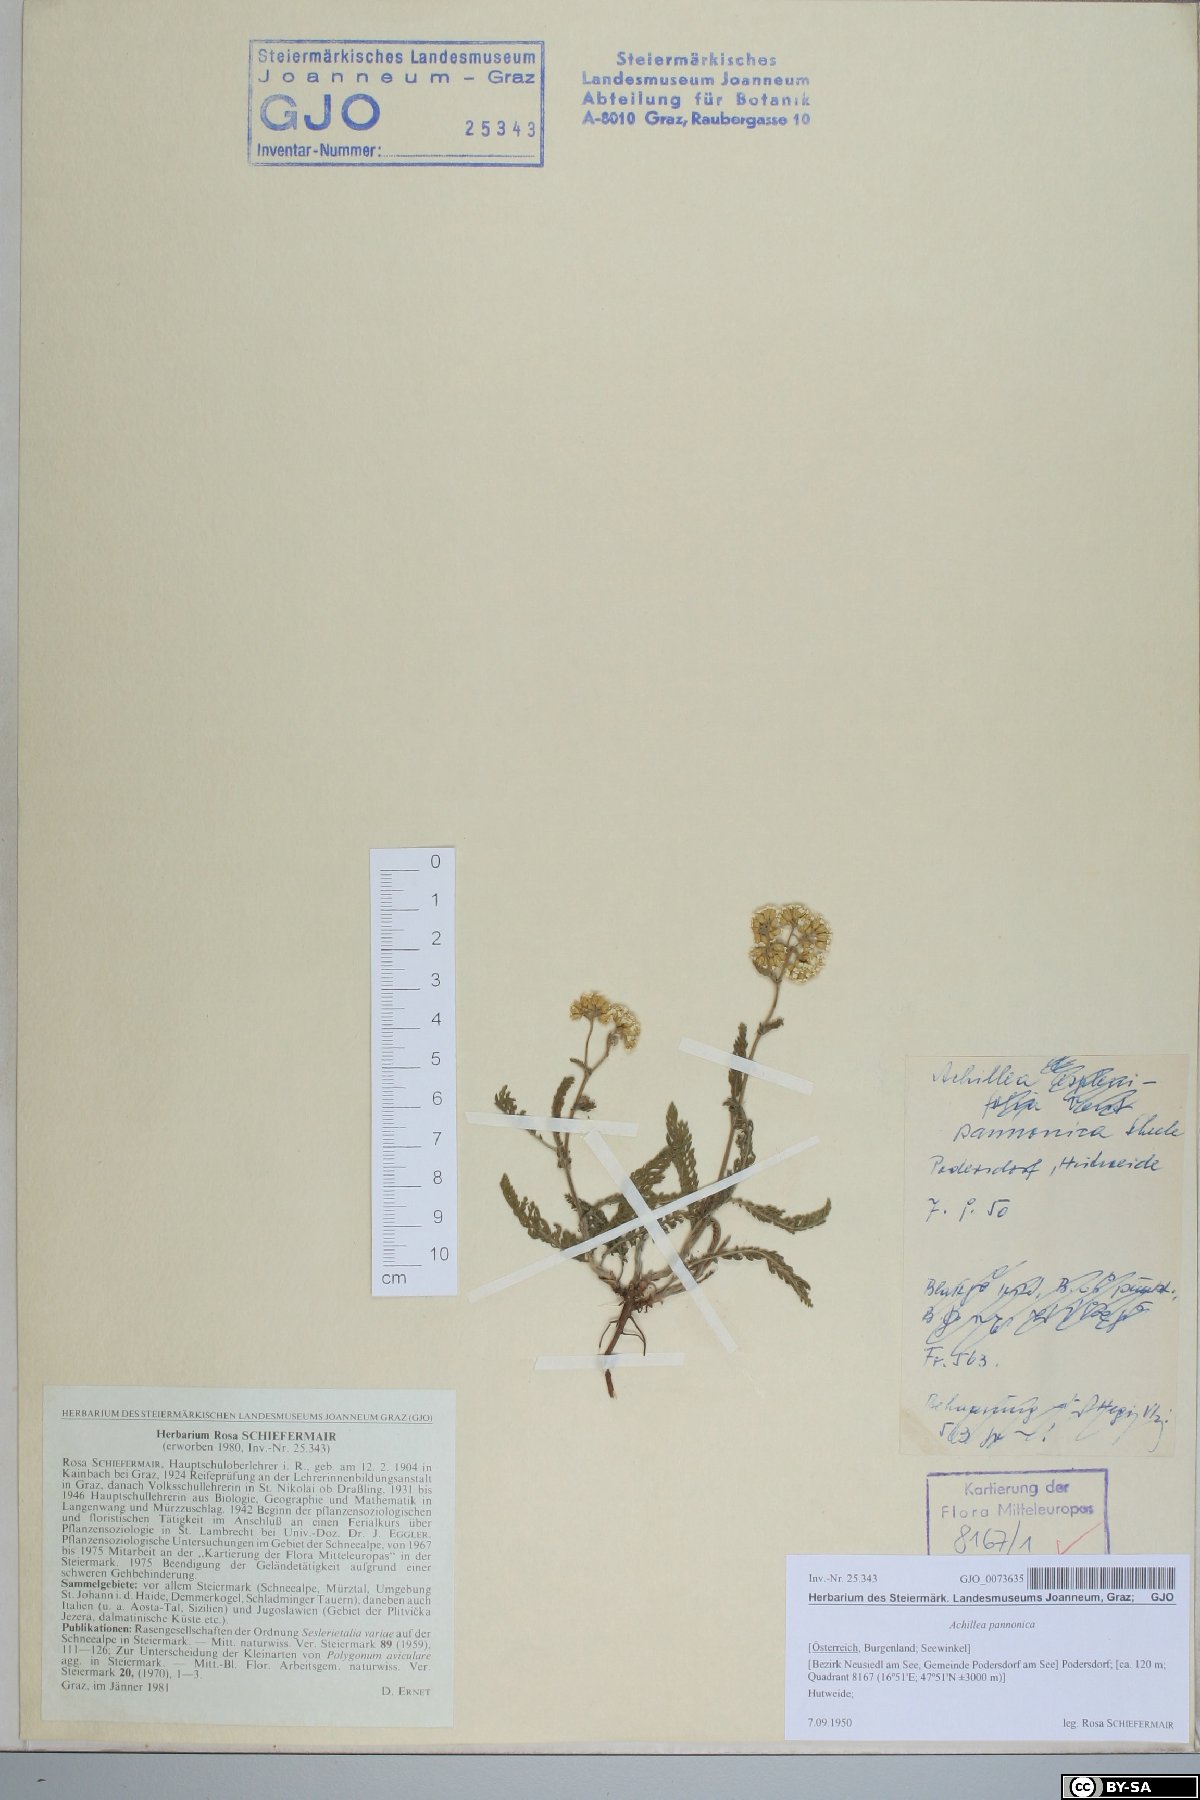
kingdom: Plantae
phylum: Tracheophyta
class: Magnoliopsida
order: Asterales
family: Asteraceae
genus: Achillea
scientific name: Achillea pannonica
